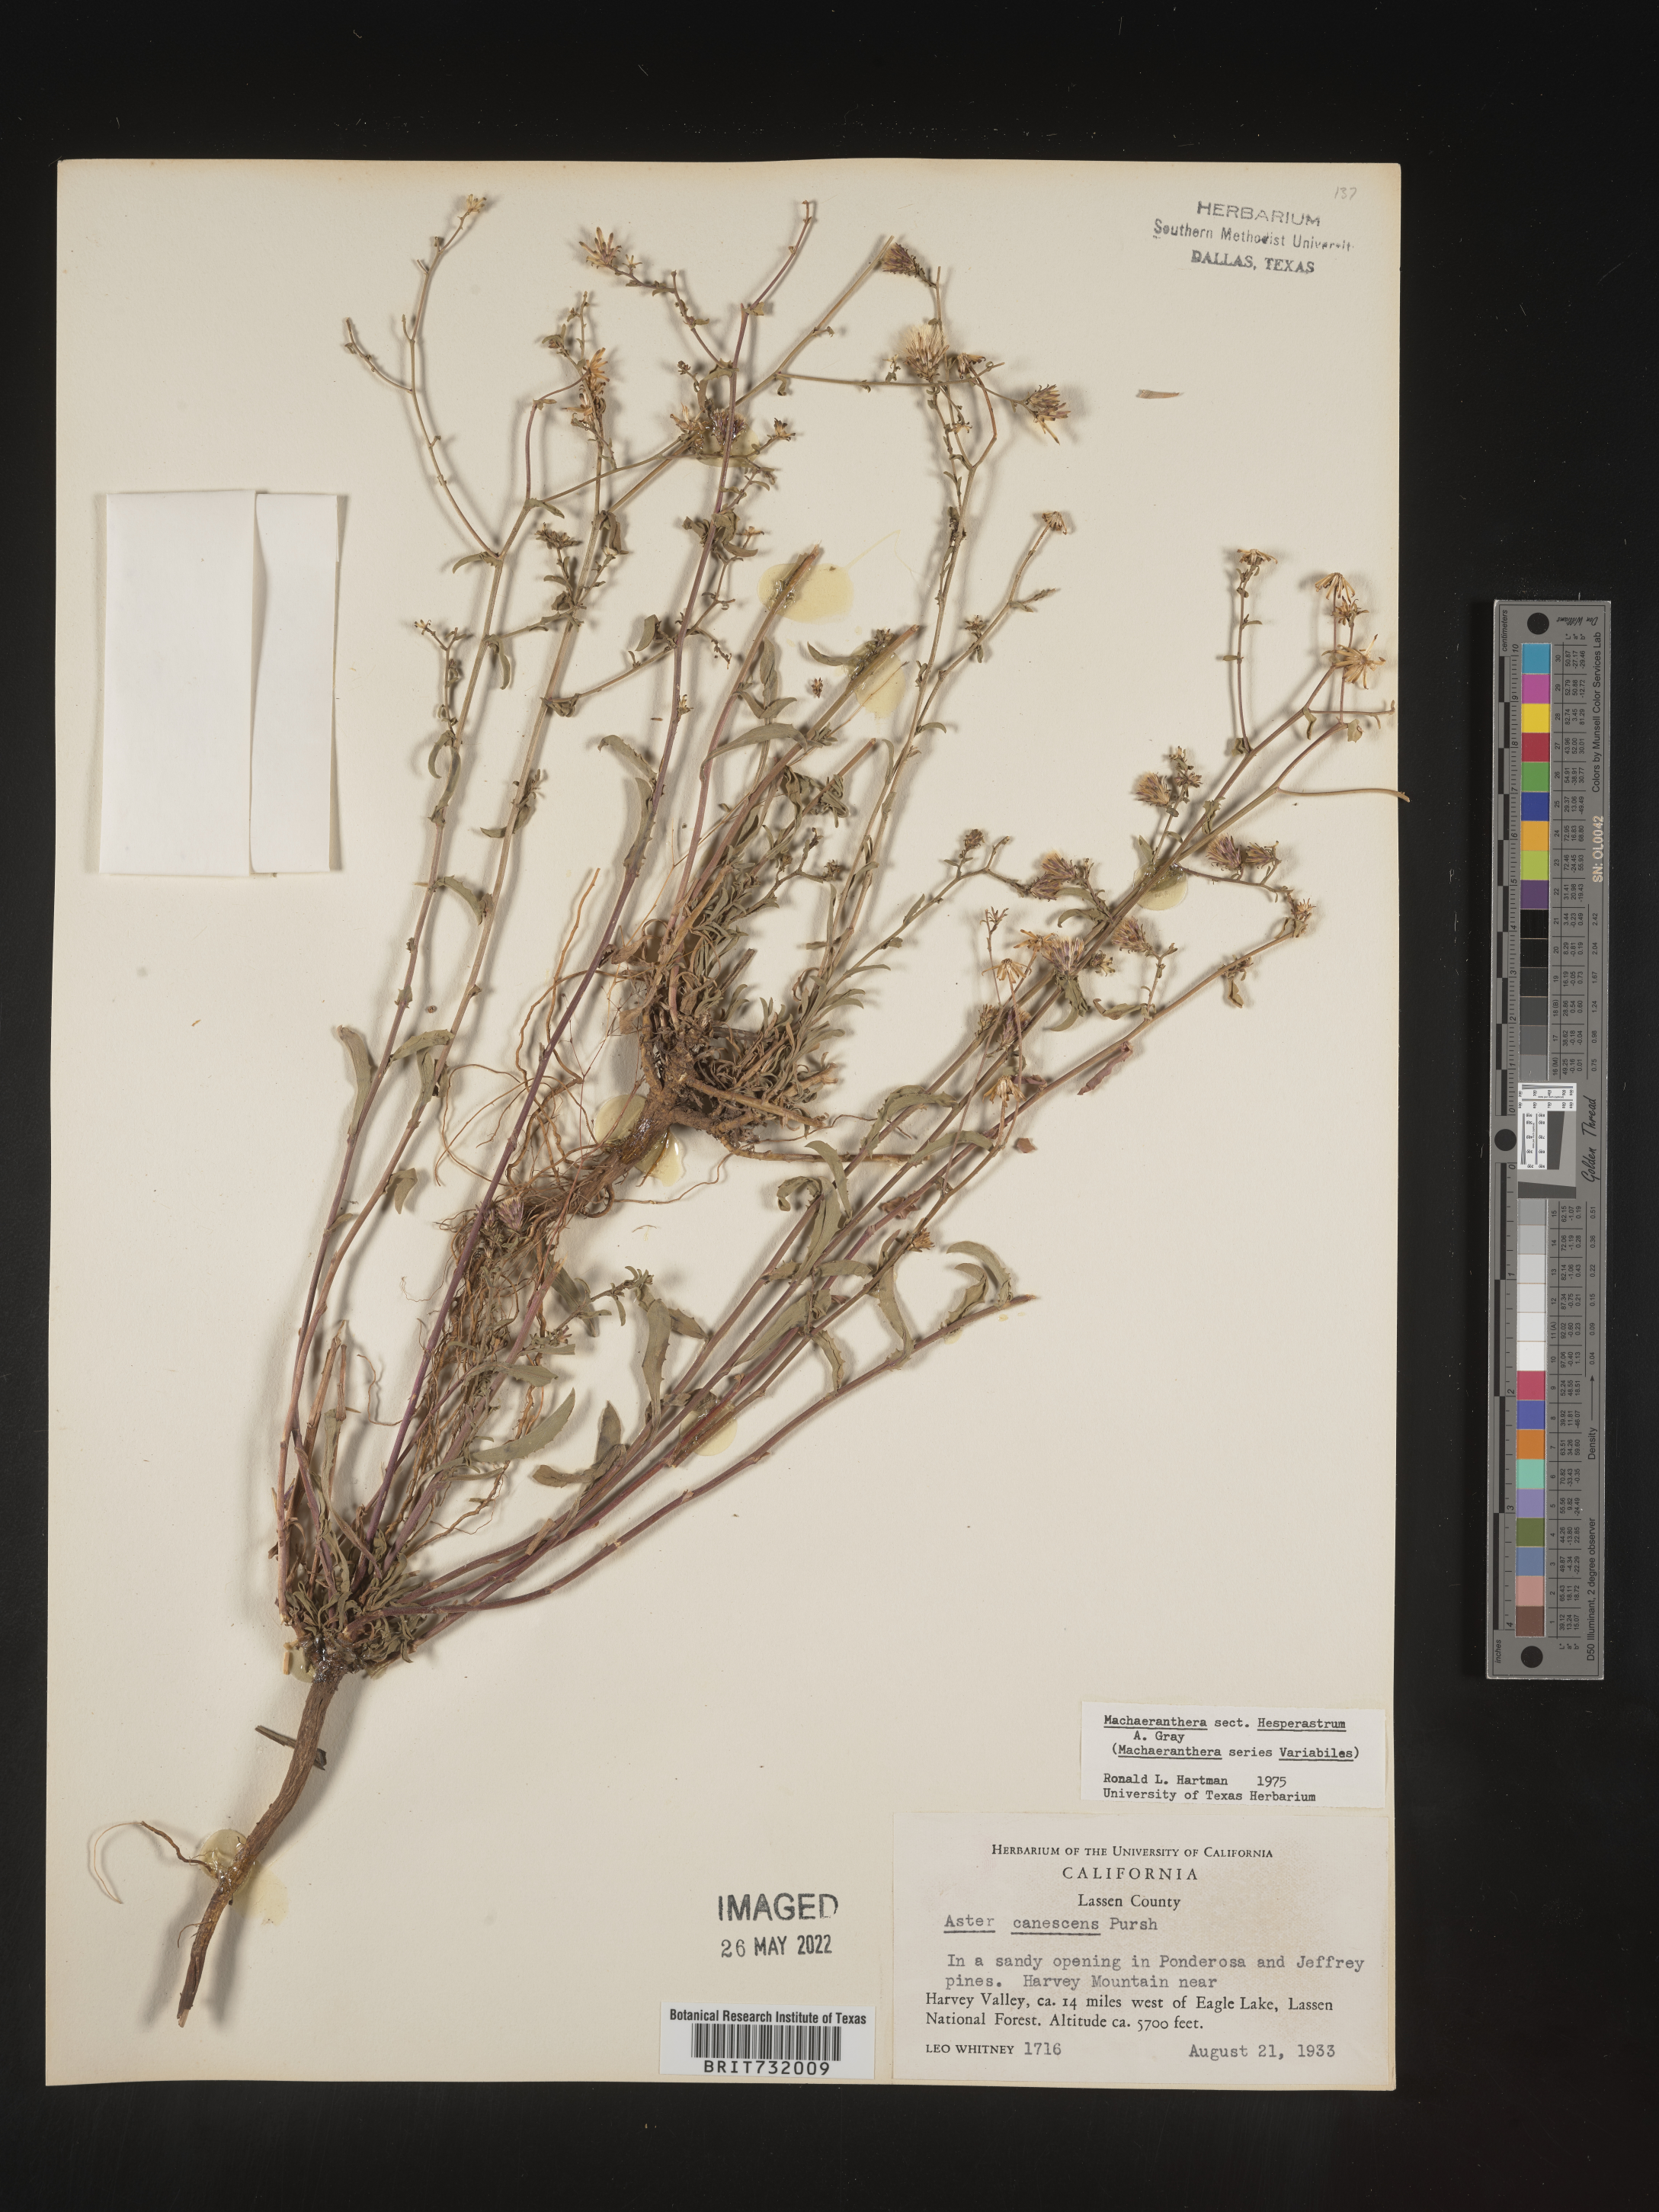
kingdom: Plantae
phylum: Tracheophyta
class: Magnoliopsida
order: Asterales
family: Asteraceae
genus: Machaeranthera
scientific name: Machaeranthera
